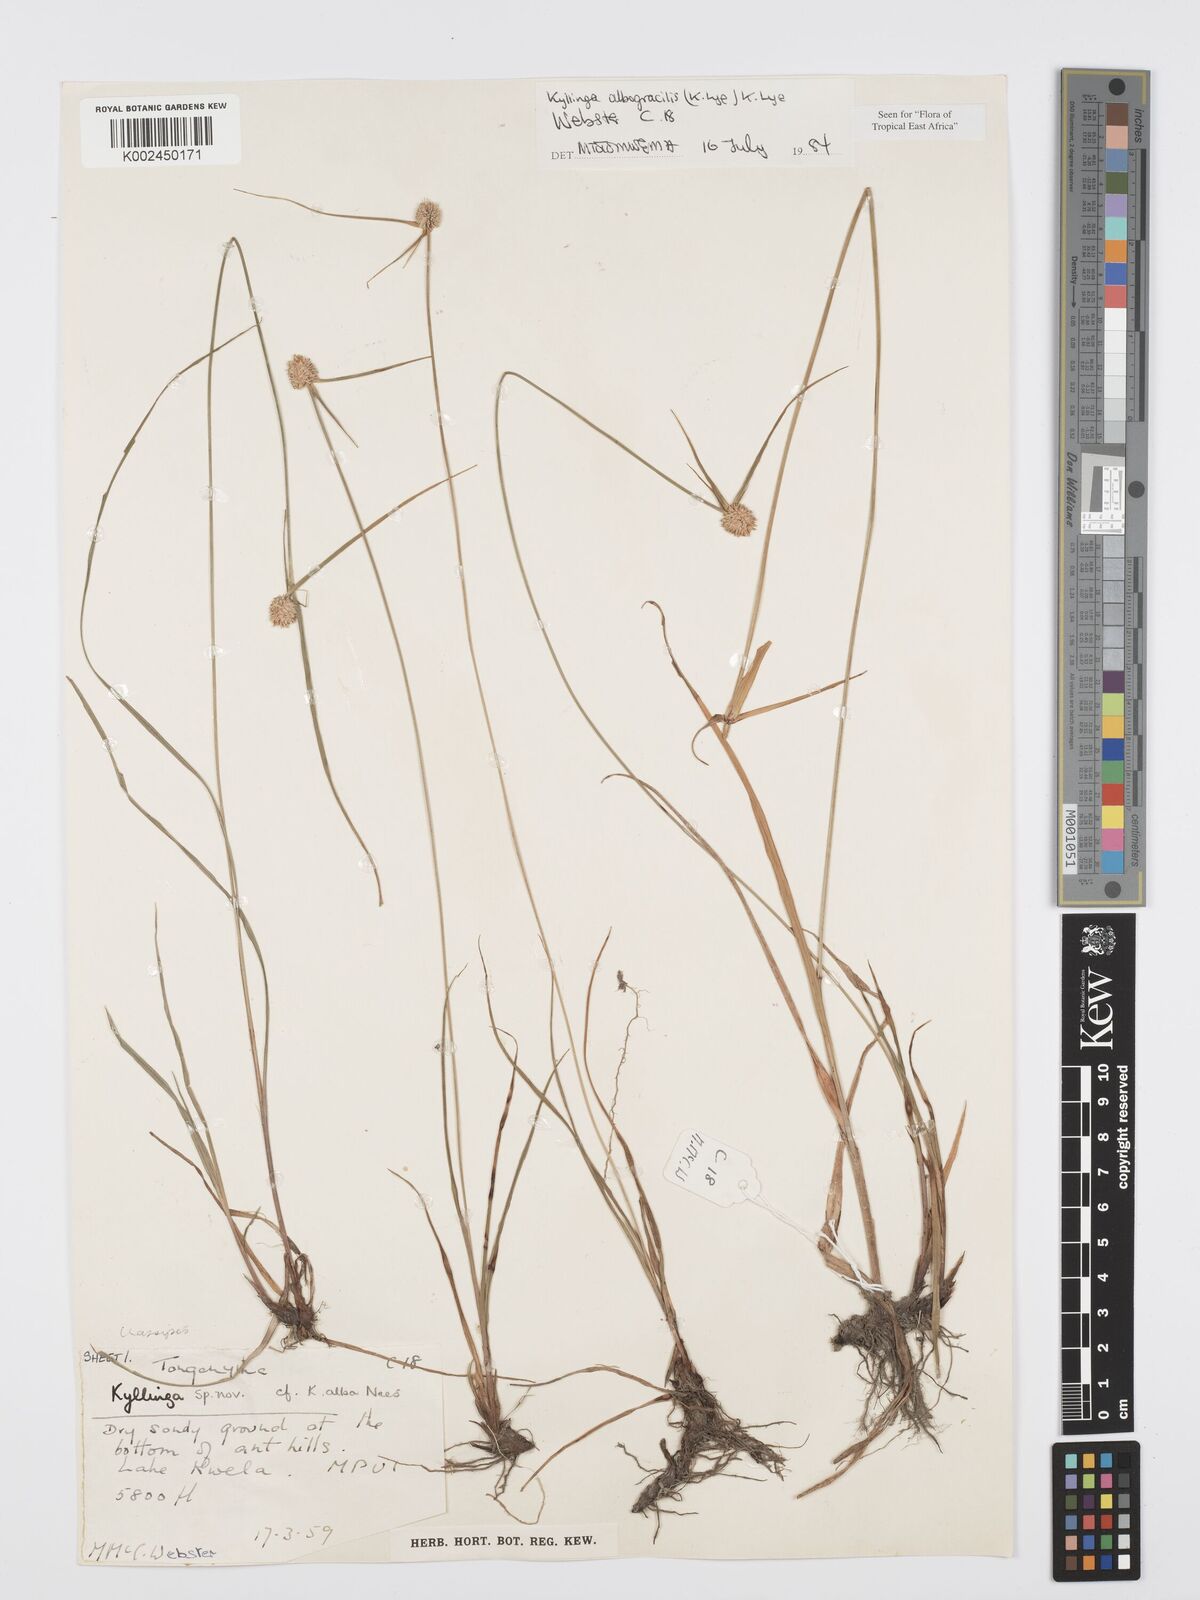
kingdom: Plantae
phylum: Tracheophyta
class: Liliopsida
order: Poales
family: Cyperaceae
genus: Cyperus
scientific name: Cyperus albogracilis
